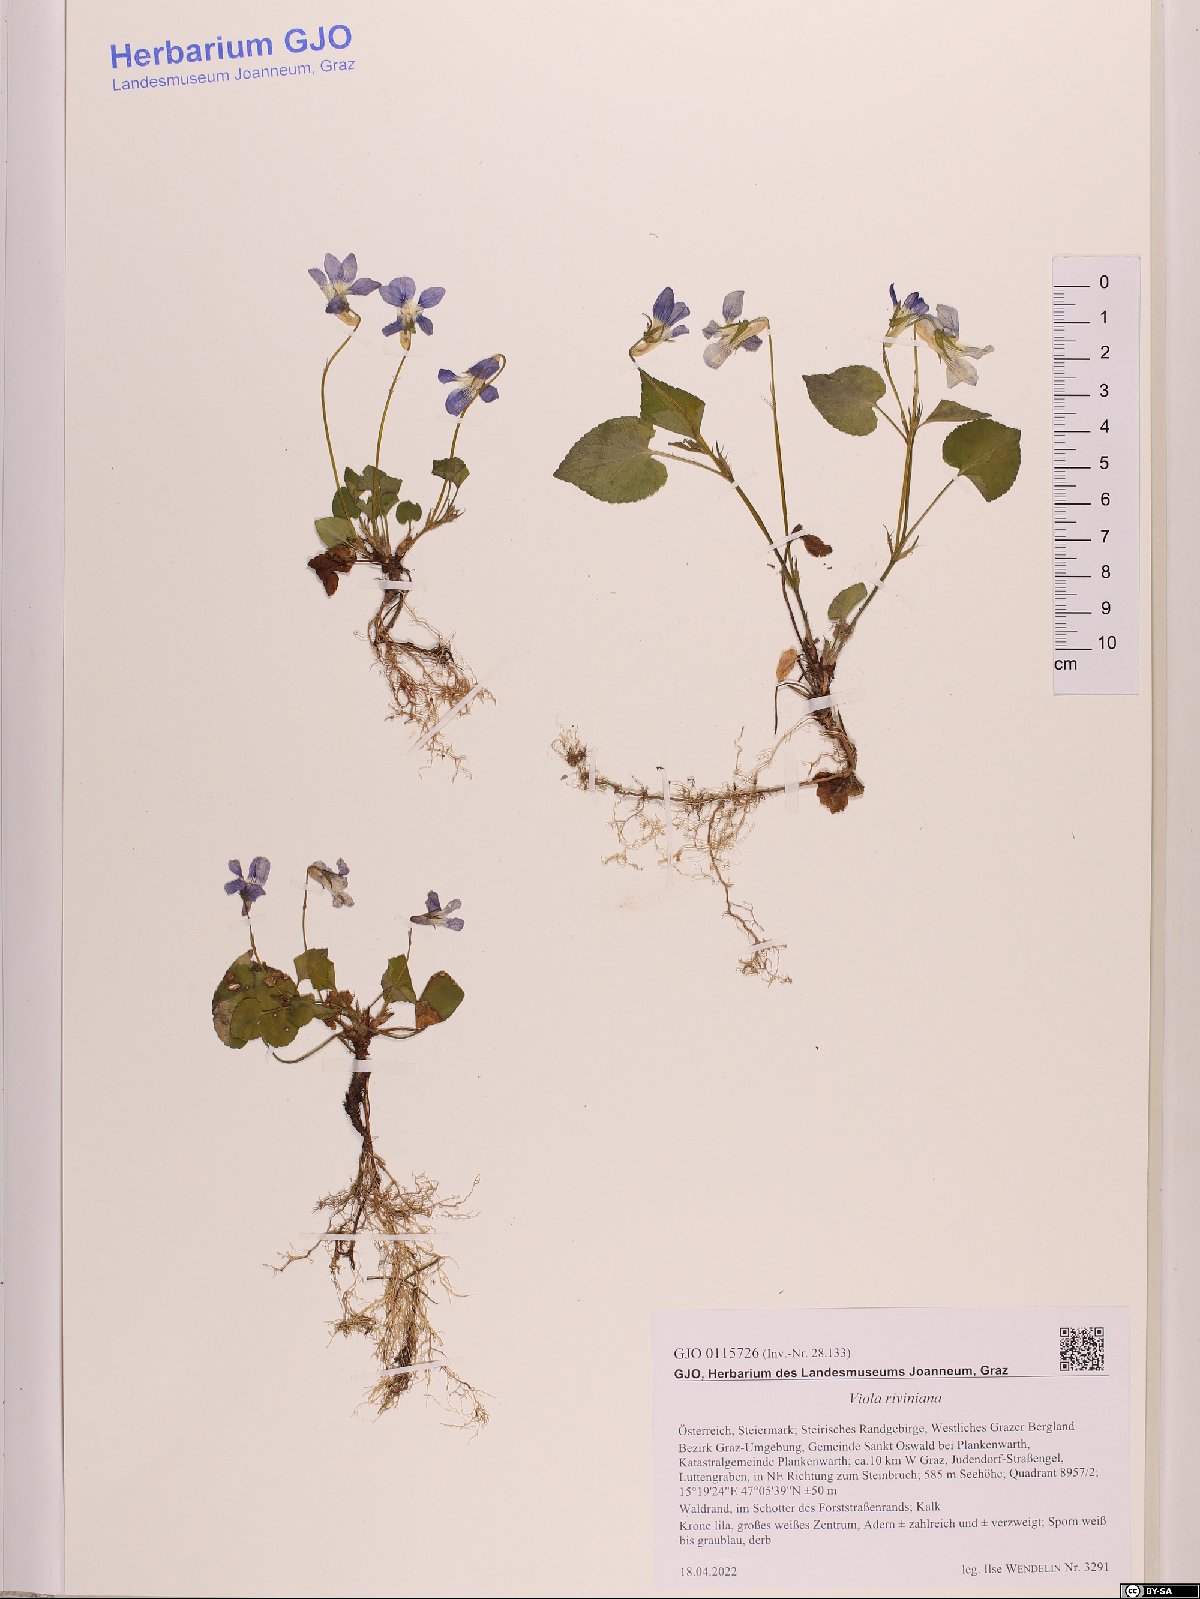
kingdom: Plantae
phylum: Tracheophyta
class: Magnoliopsida
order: Malpighiales
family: Violaceae
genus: Viola
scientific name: Viola riviniana
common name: Common dog-violet
